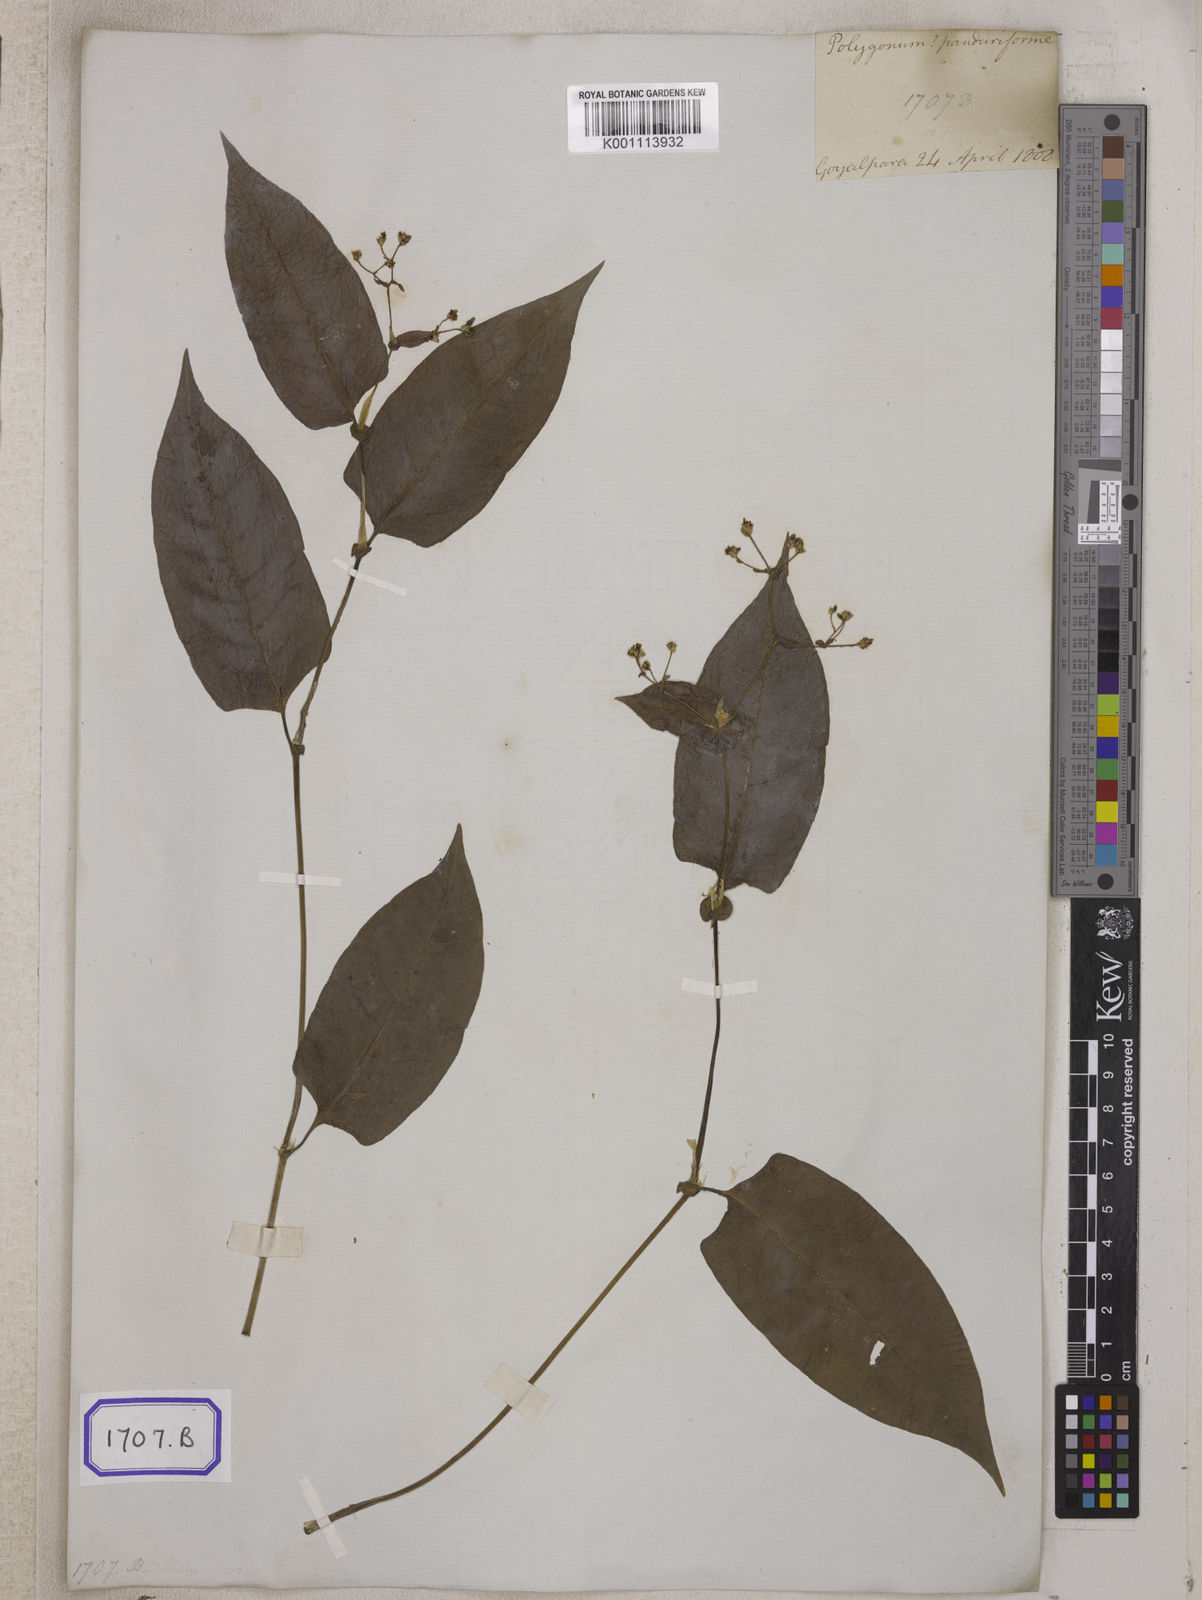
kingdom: Plantae
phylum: Tracheophyta
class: Magnoliopsida
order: Caryophyllales
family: Polygonaceae
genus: Persicaria
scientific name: Persicaria chinensis
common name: Chinese knotweed
